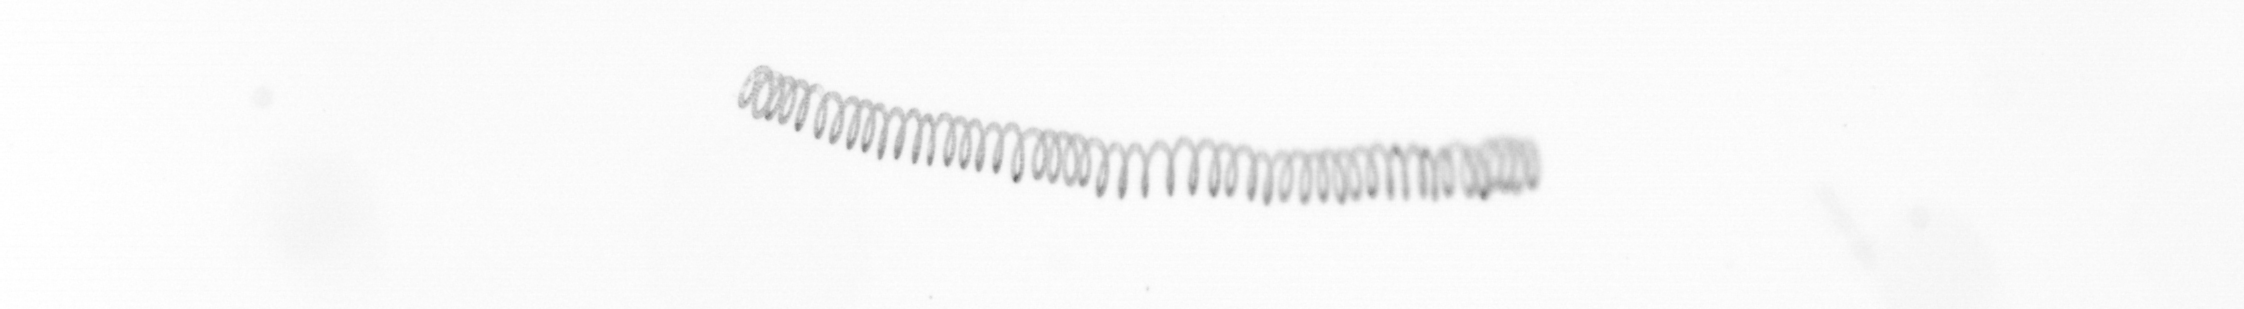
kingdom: Chromista
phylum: Ochrophyta
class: Bacillariophyceae
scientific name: Bacillariophyceae
